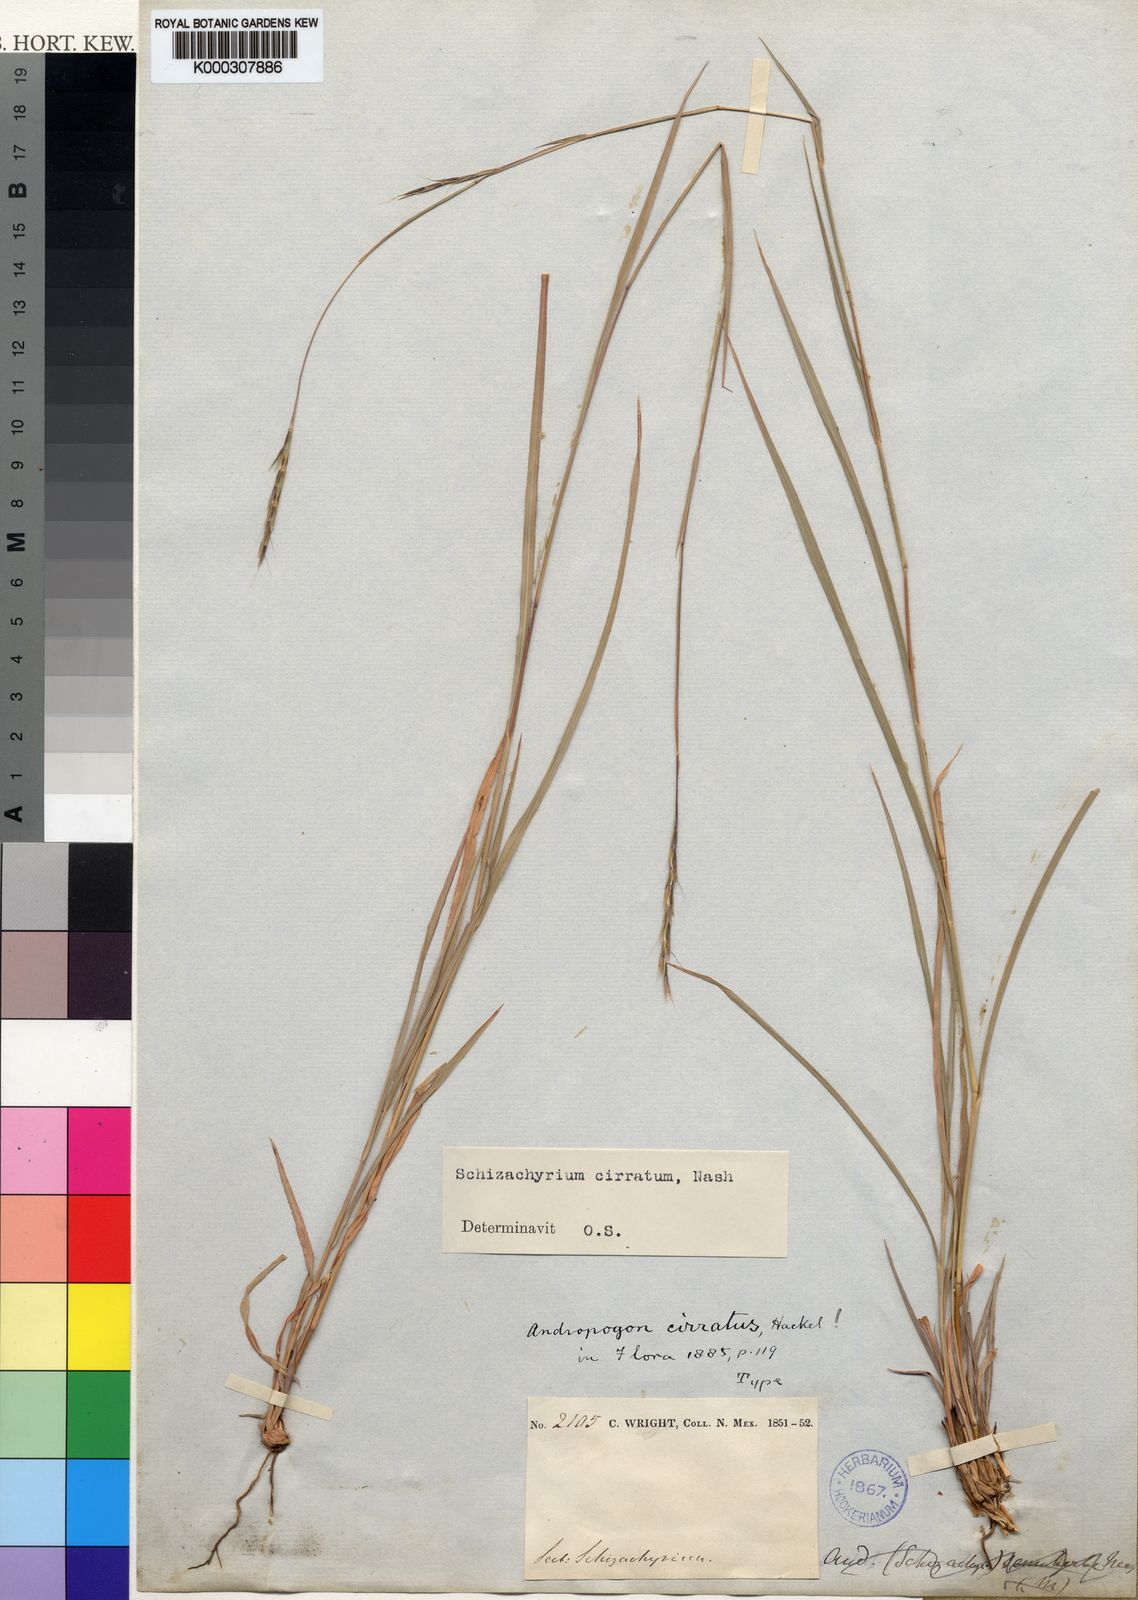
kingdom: Plantae
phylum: Tracheophyta
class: Liliopsida
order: Poales
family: Poaceae
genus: Schizachyrium
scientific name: Schizachyrium
